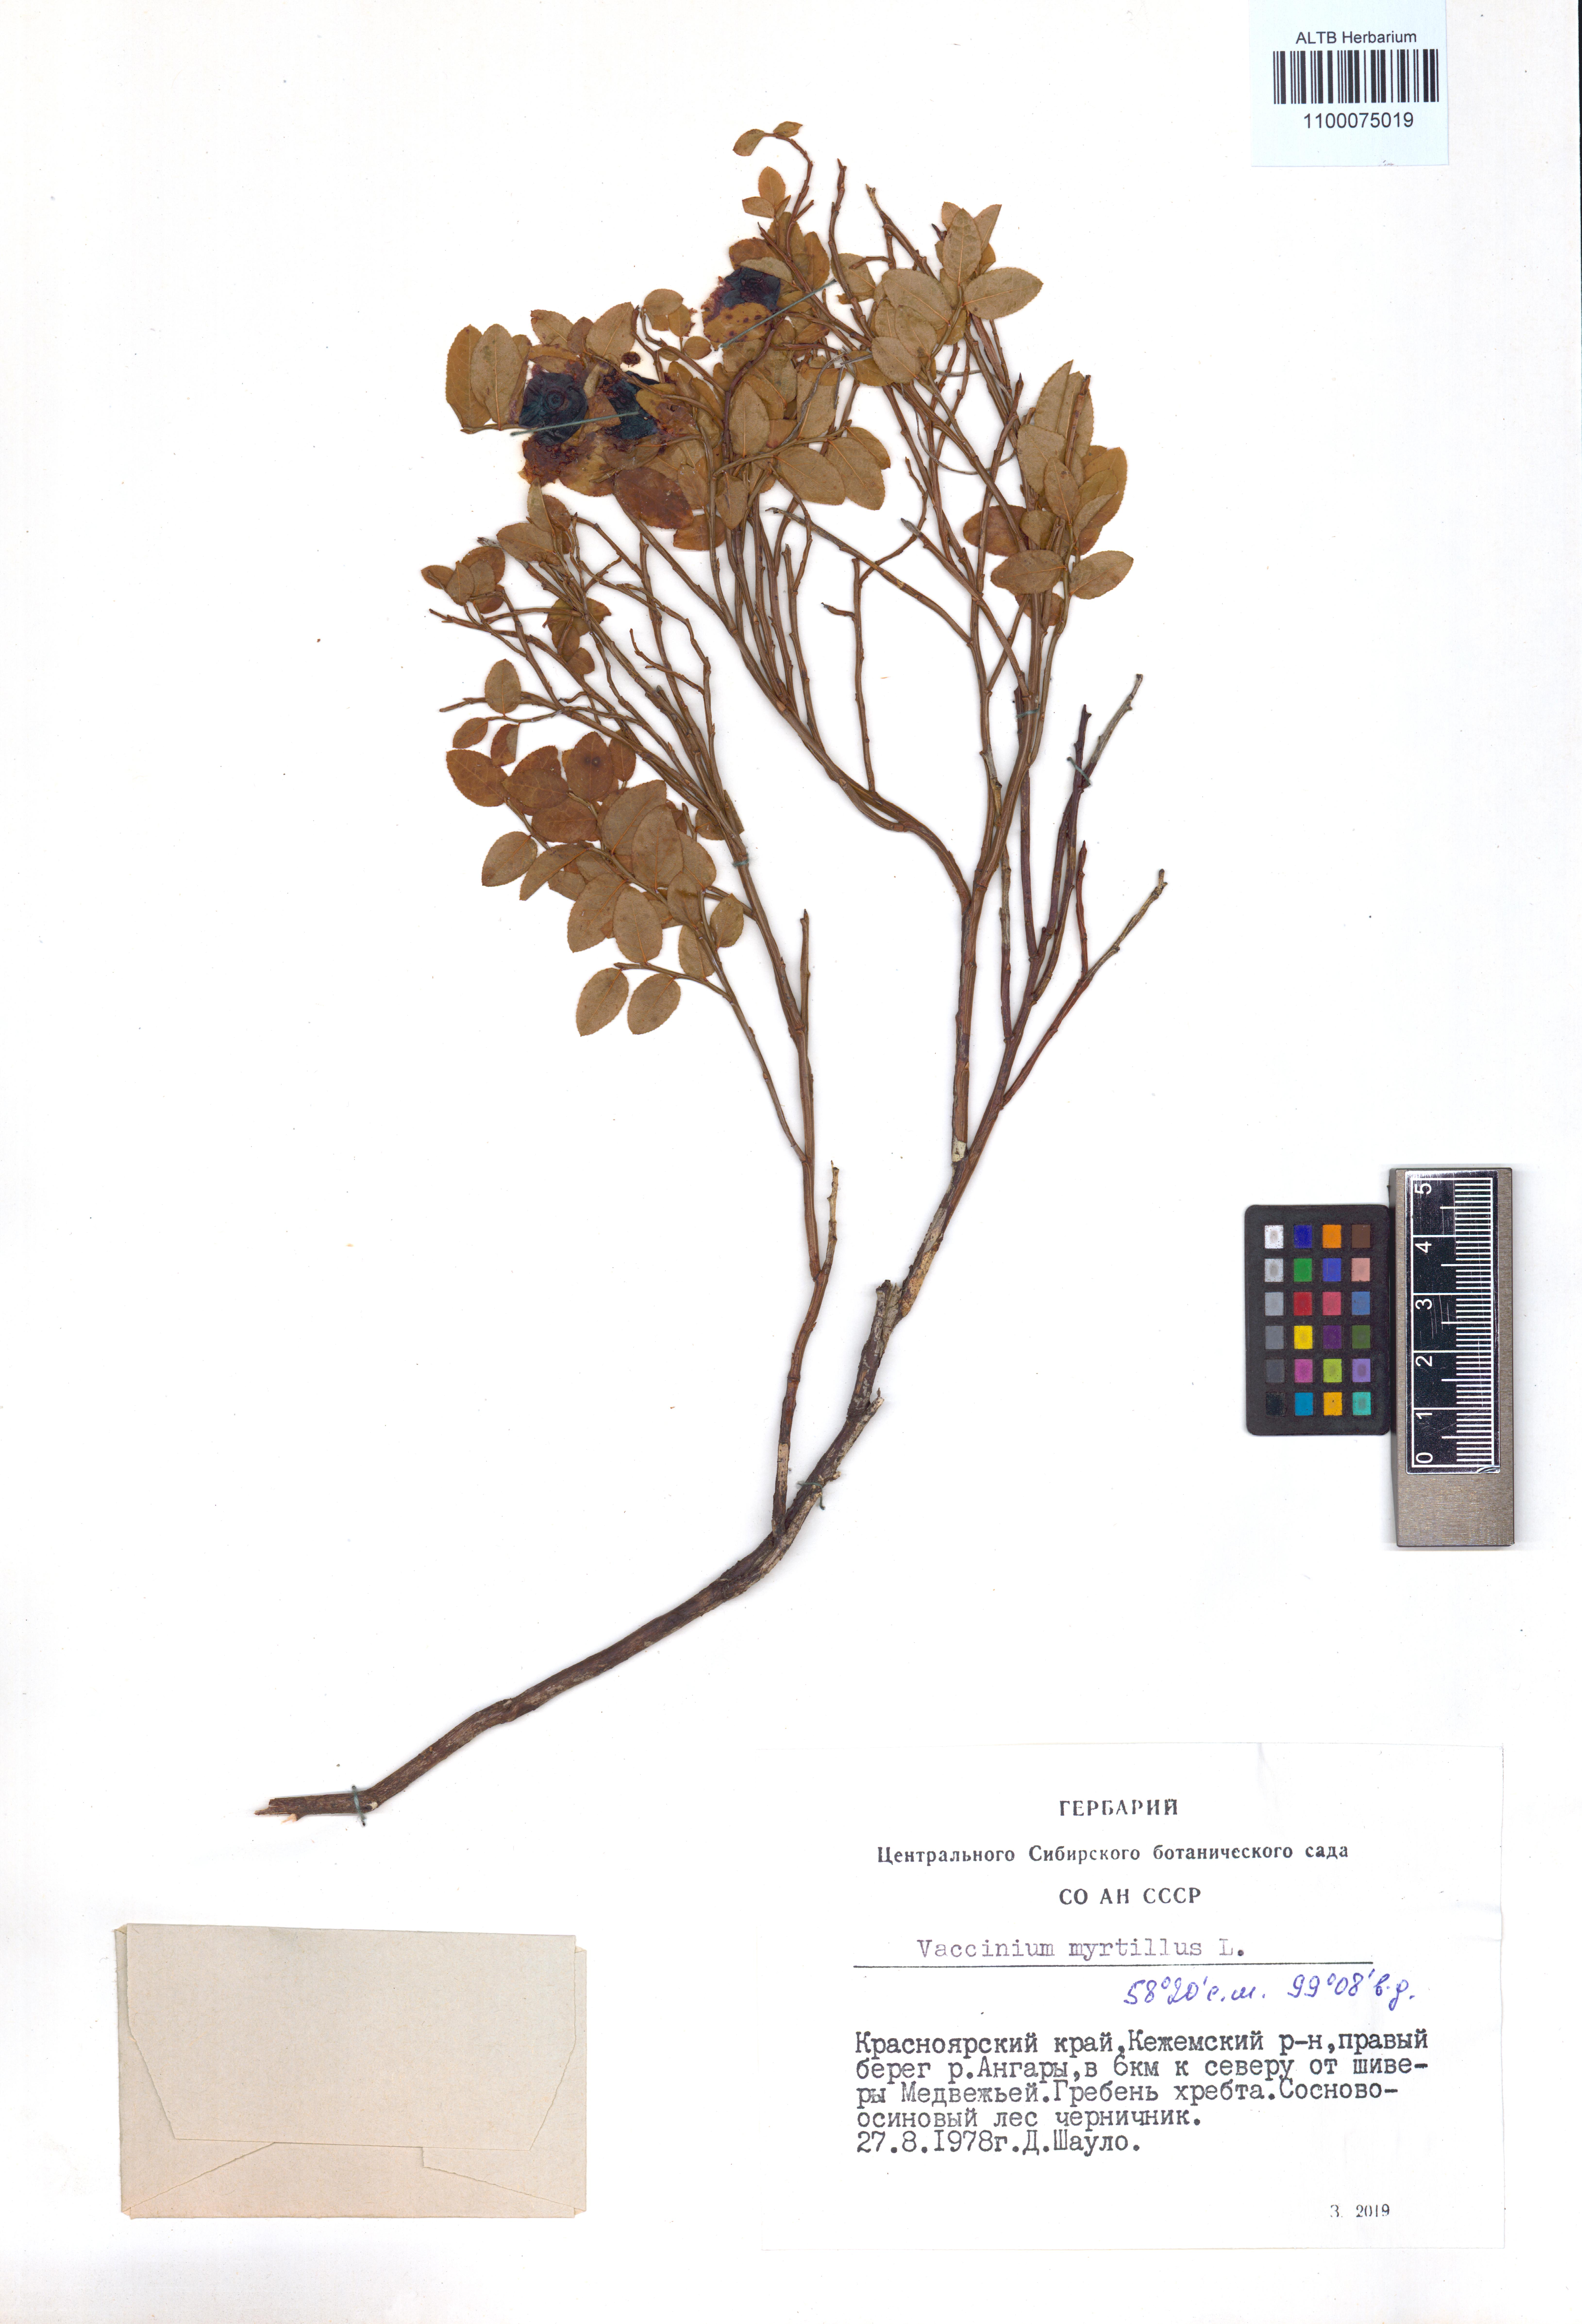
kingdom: Plantae
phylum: Tracheophyta
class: Magnoliopsida
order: Ericales
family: Ericaceae
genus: Vaccinium
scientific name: Vaccinium myrtillus
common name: Bilberry
